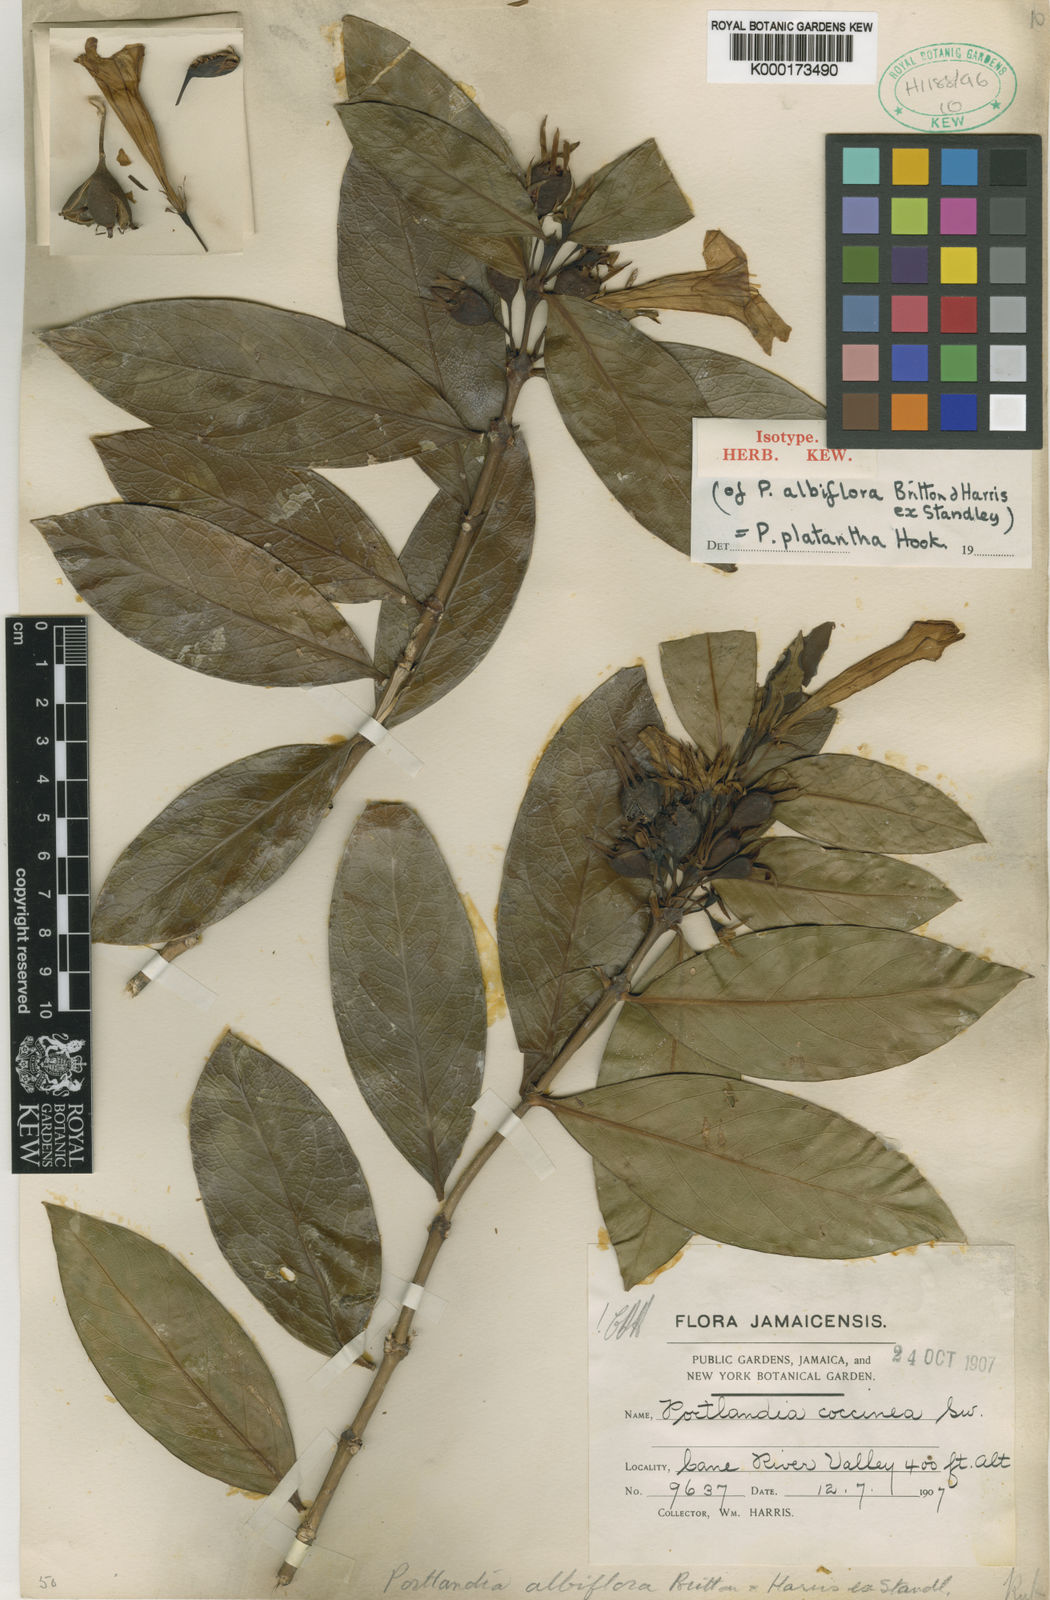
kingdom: Plantae
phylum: Tracheophyta
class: Magnoliopsida
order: Gentianales
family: Rubiaceae
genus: Portlandia
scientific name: Portlandia platantha
